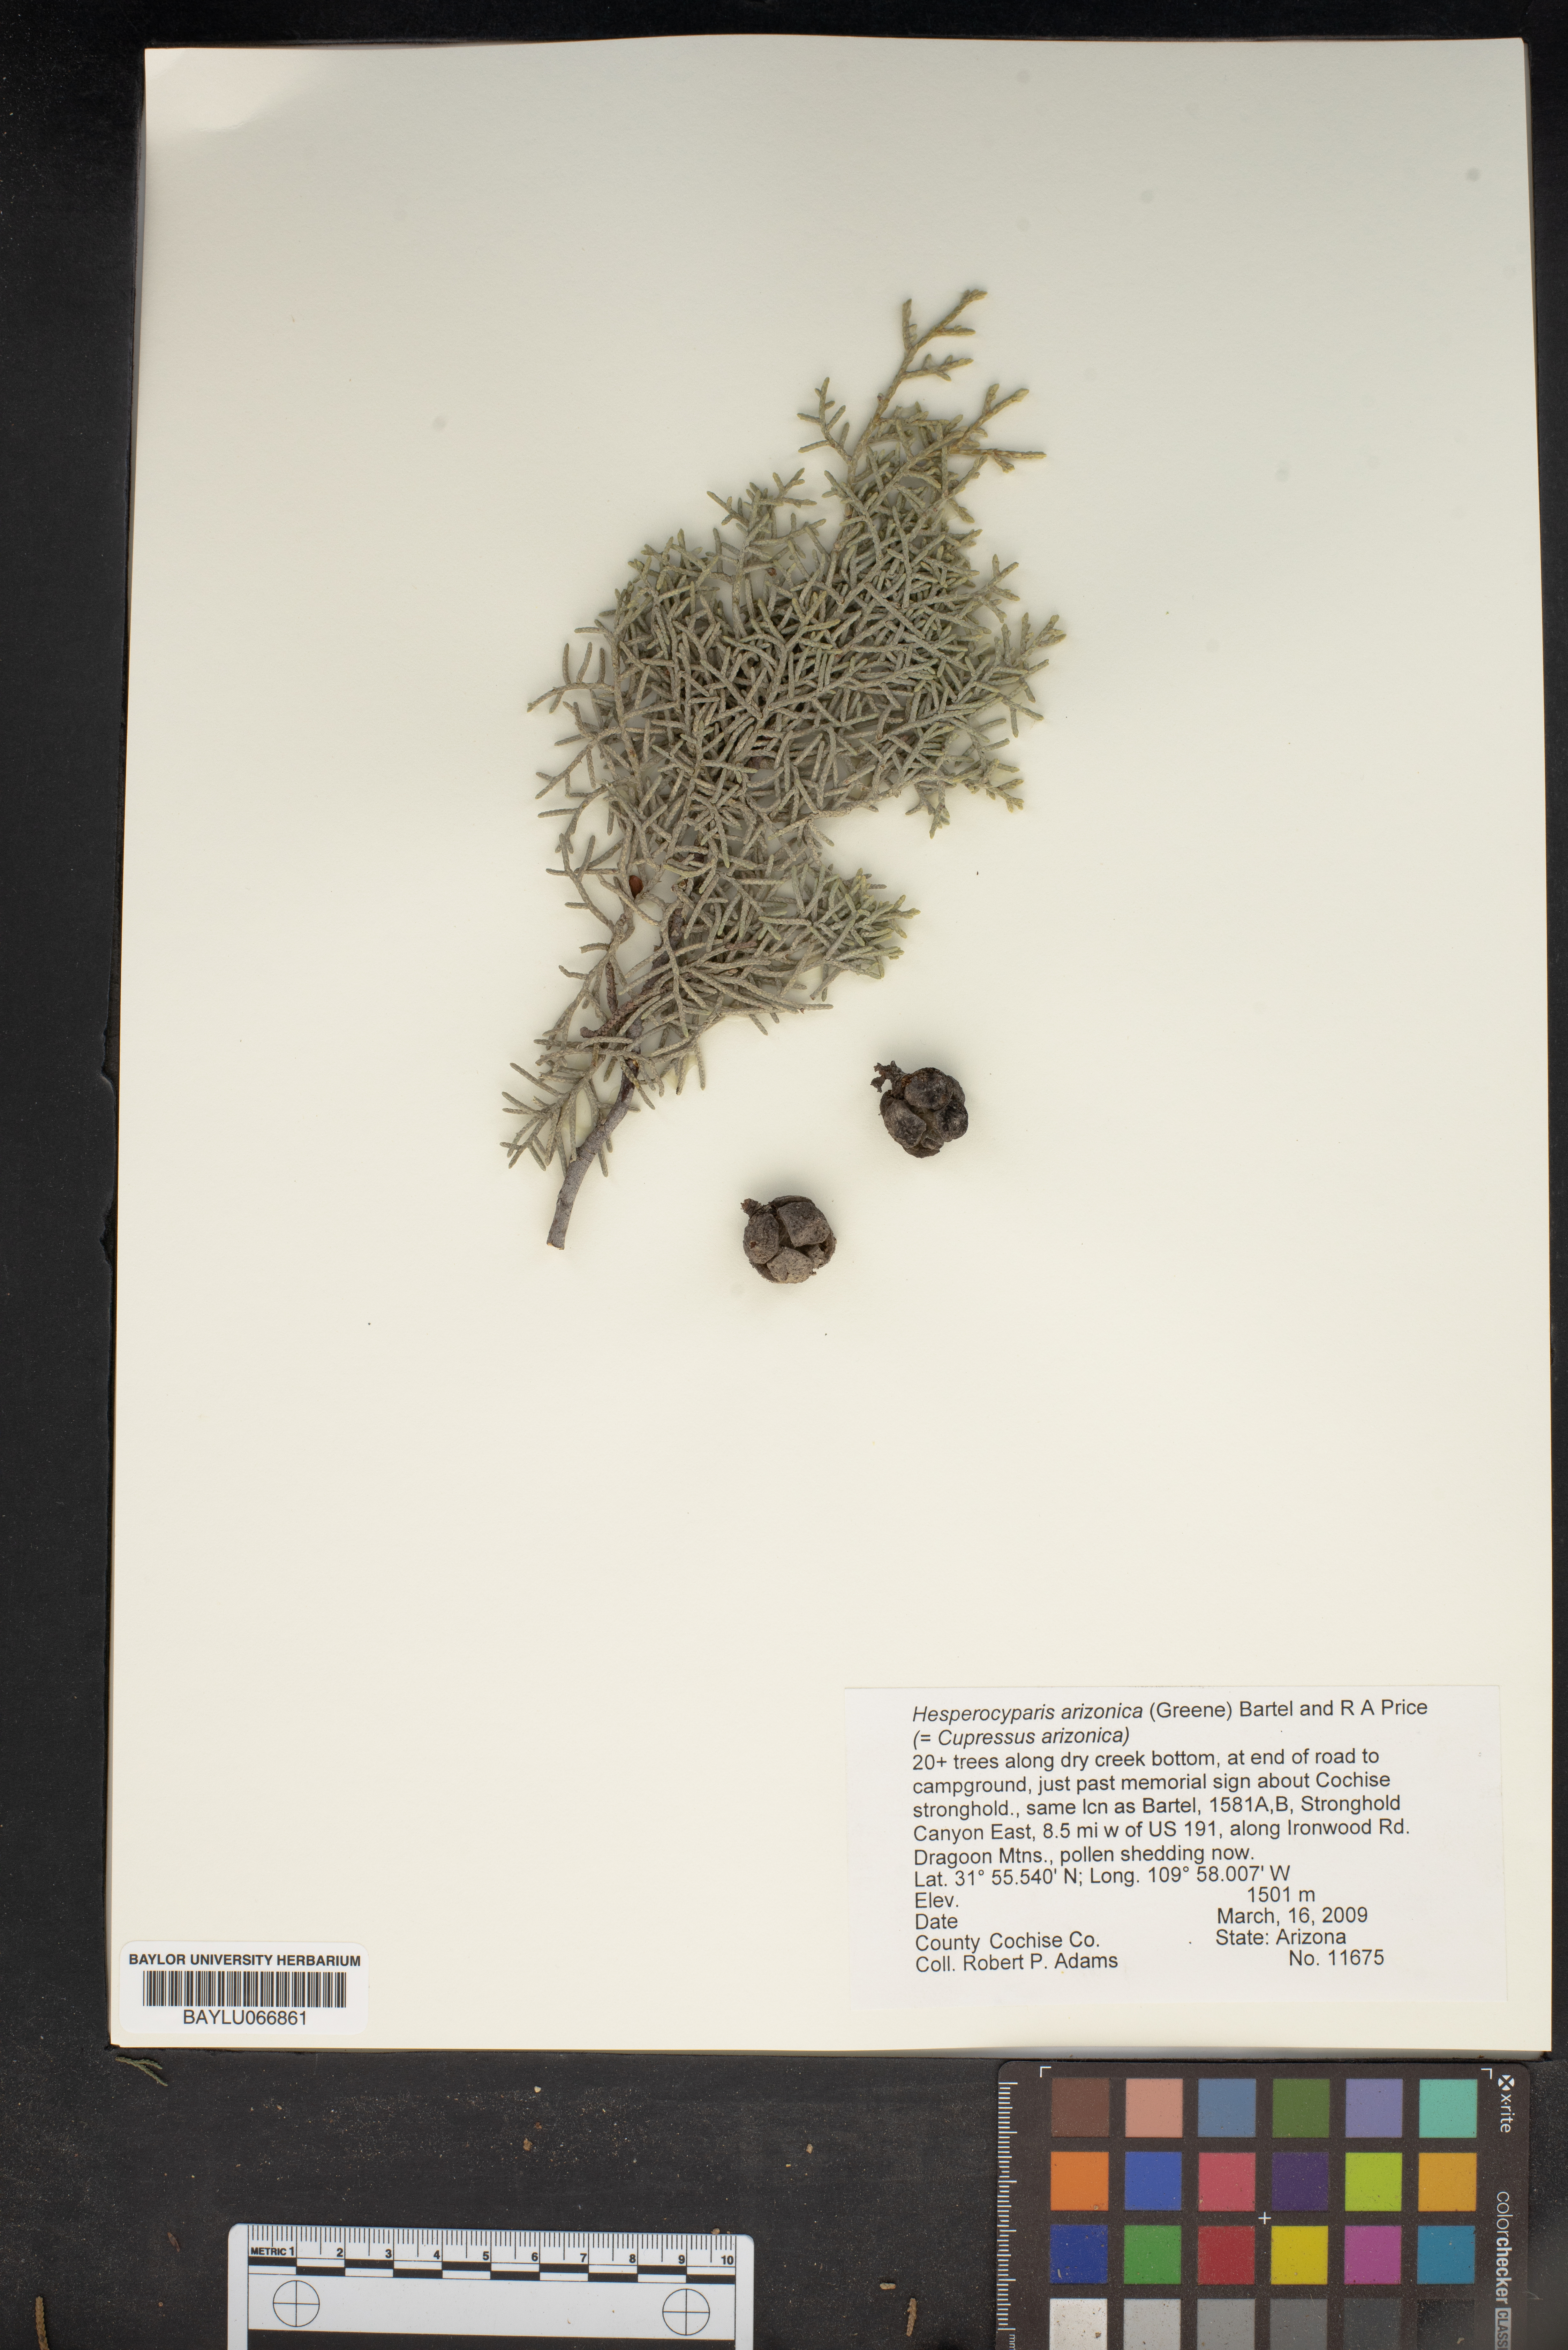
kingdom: Plantae
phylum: Tracheophyta
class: Pinopsida
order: Pinales
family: Cupressaceae
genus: Cupressus
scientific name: Cupressus arizonica
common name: Arizona cypress
